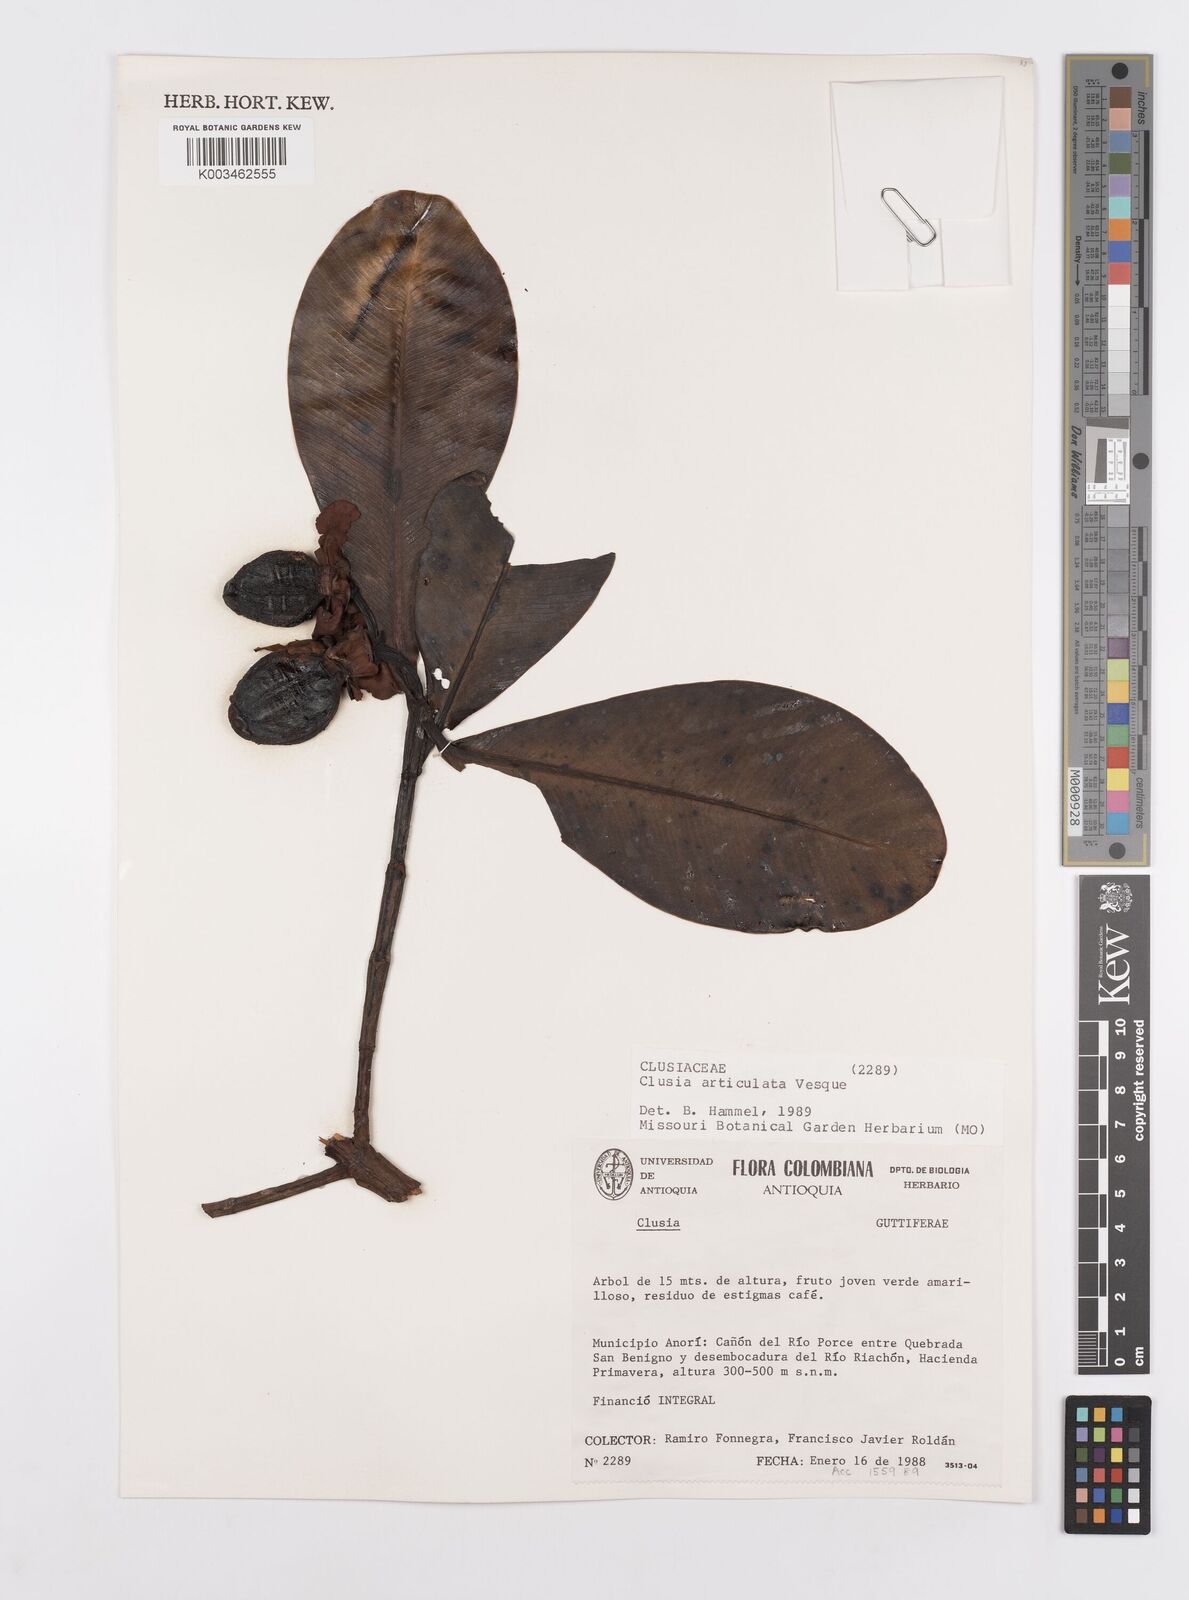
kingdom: Plantae
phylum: Tracheophyta
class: Magnoliopsida
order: Malpighiales
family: Clusiaceae
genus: Clusia
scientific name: Clusia articulata
